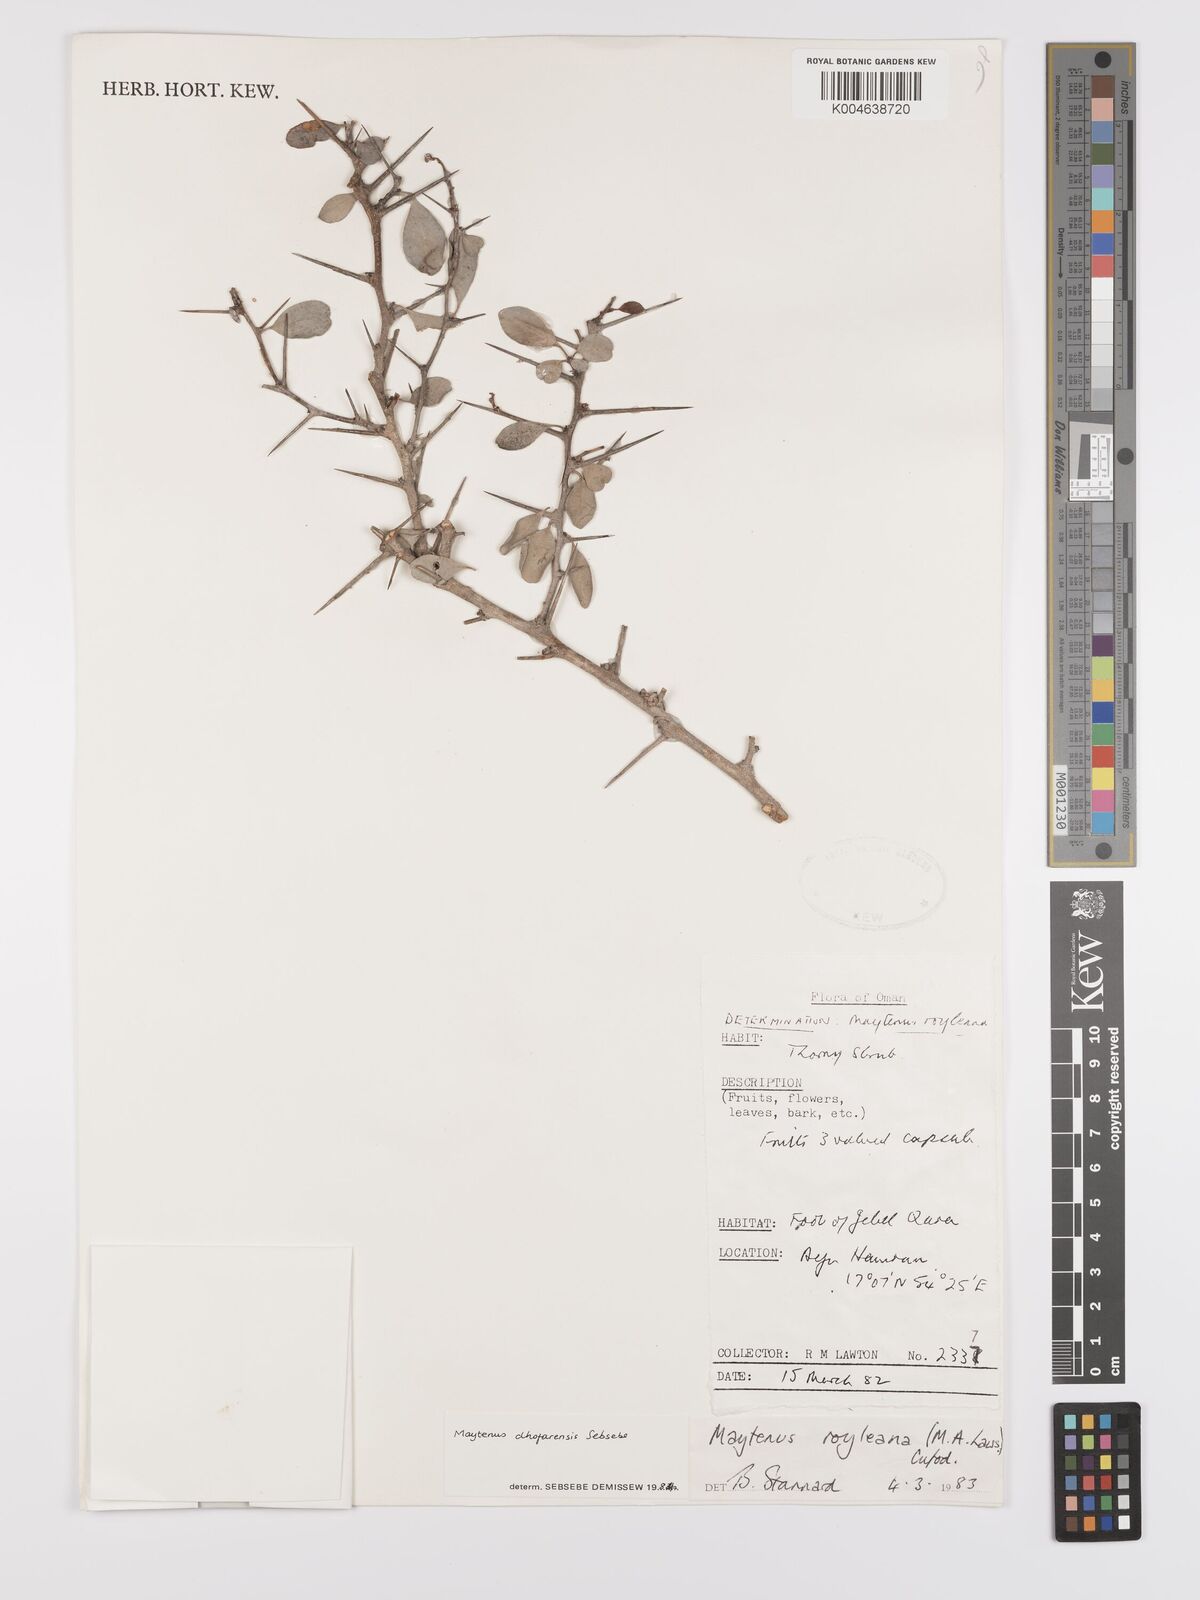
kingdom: Plantae
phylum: Tracheophyta
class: Magnoliopsida
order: Celastrales
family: Celastraceae
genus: Gymnosporia
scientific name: Gymnosporia dhofarensis
